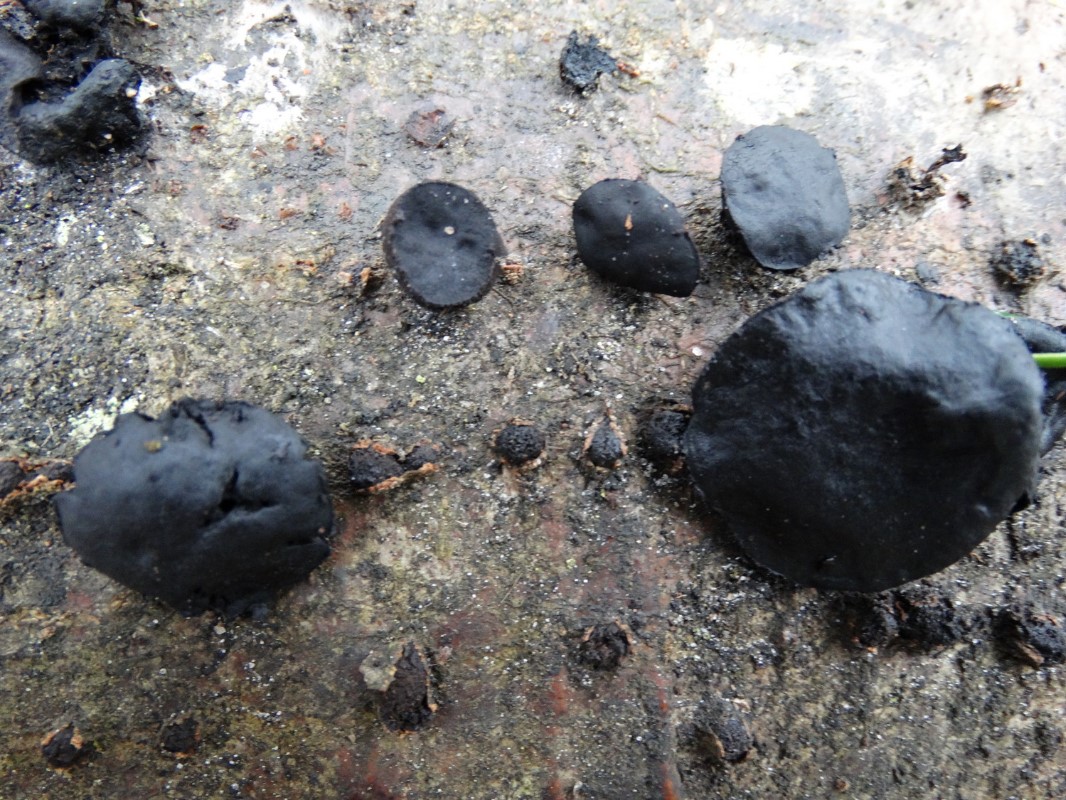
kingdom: Fungi
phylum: Ascomycota
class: Leotiomycetes
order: Phacidiales
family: Phacidiaceae
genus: Bulgaria
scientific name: Bulgaria inquinans
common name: afsmittende topsvamp
